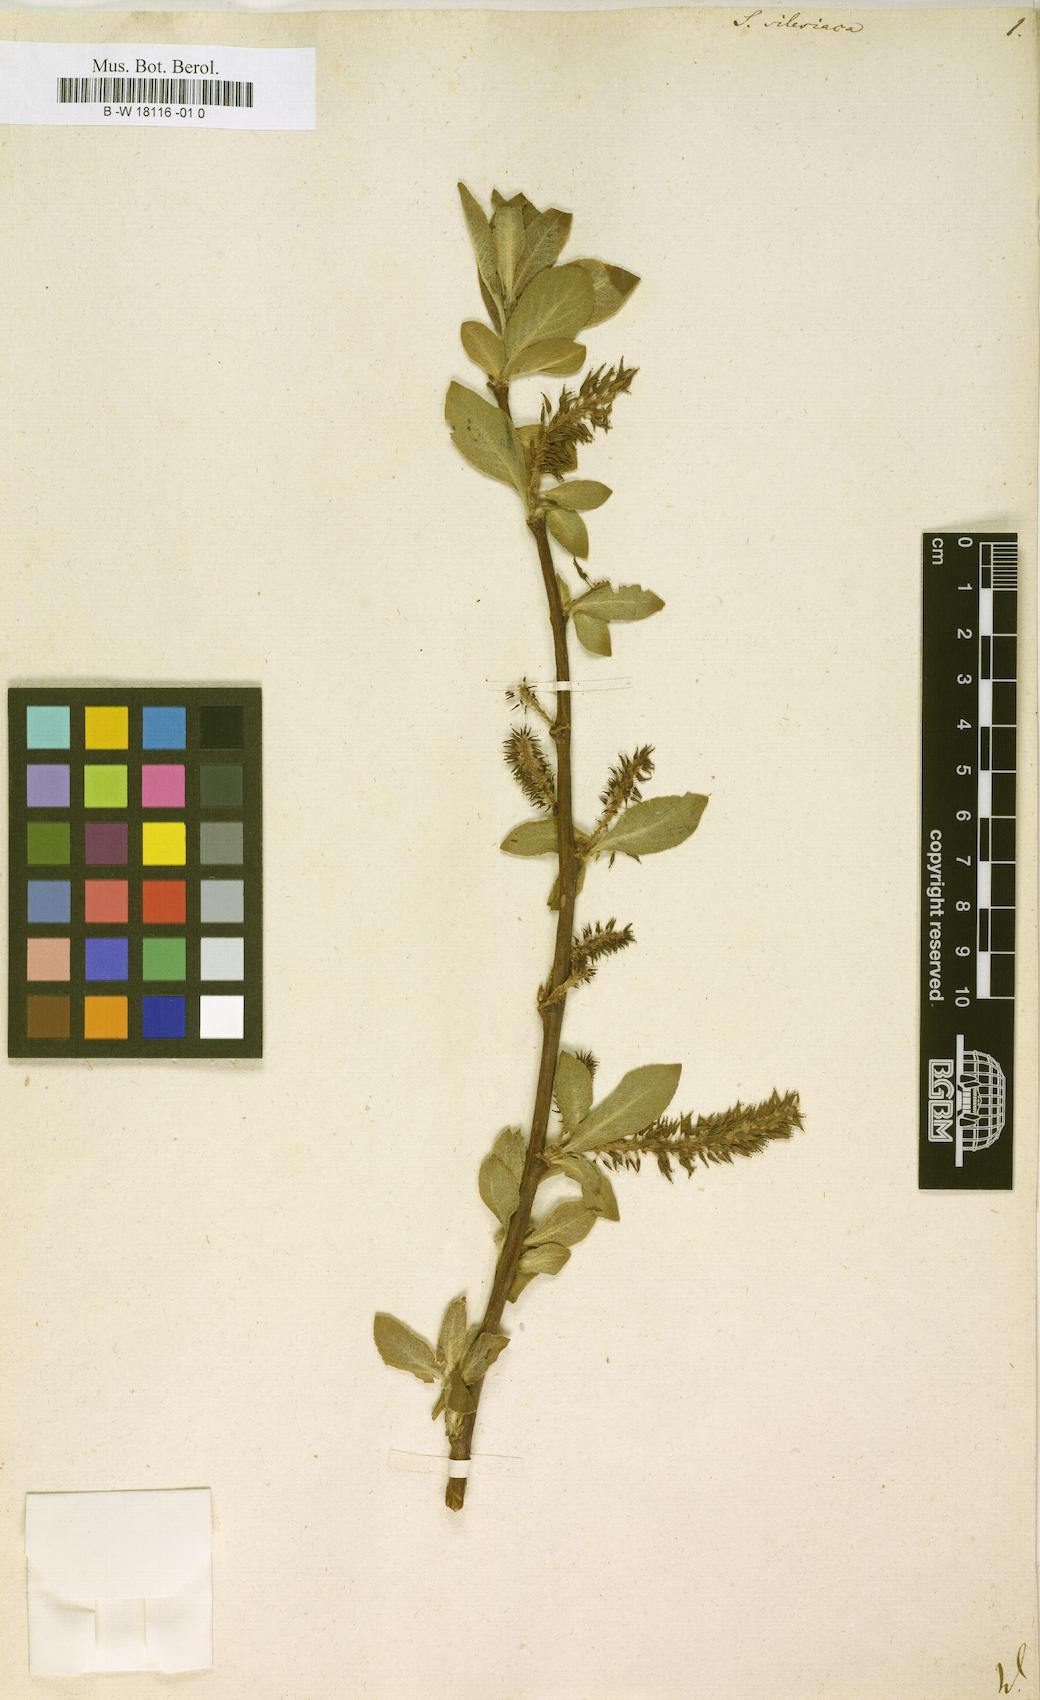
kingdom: Plantae
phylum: Tracheophyta
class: Magnoliopsida
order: Malpighiales
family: Salicaceae
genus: Salix
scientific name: Salix silesiaca
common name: Silesian willow
